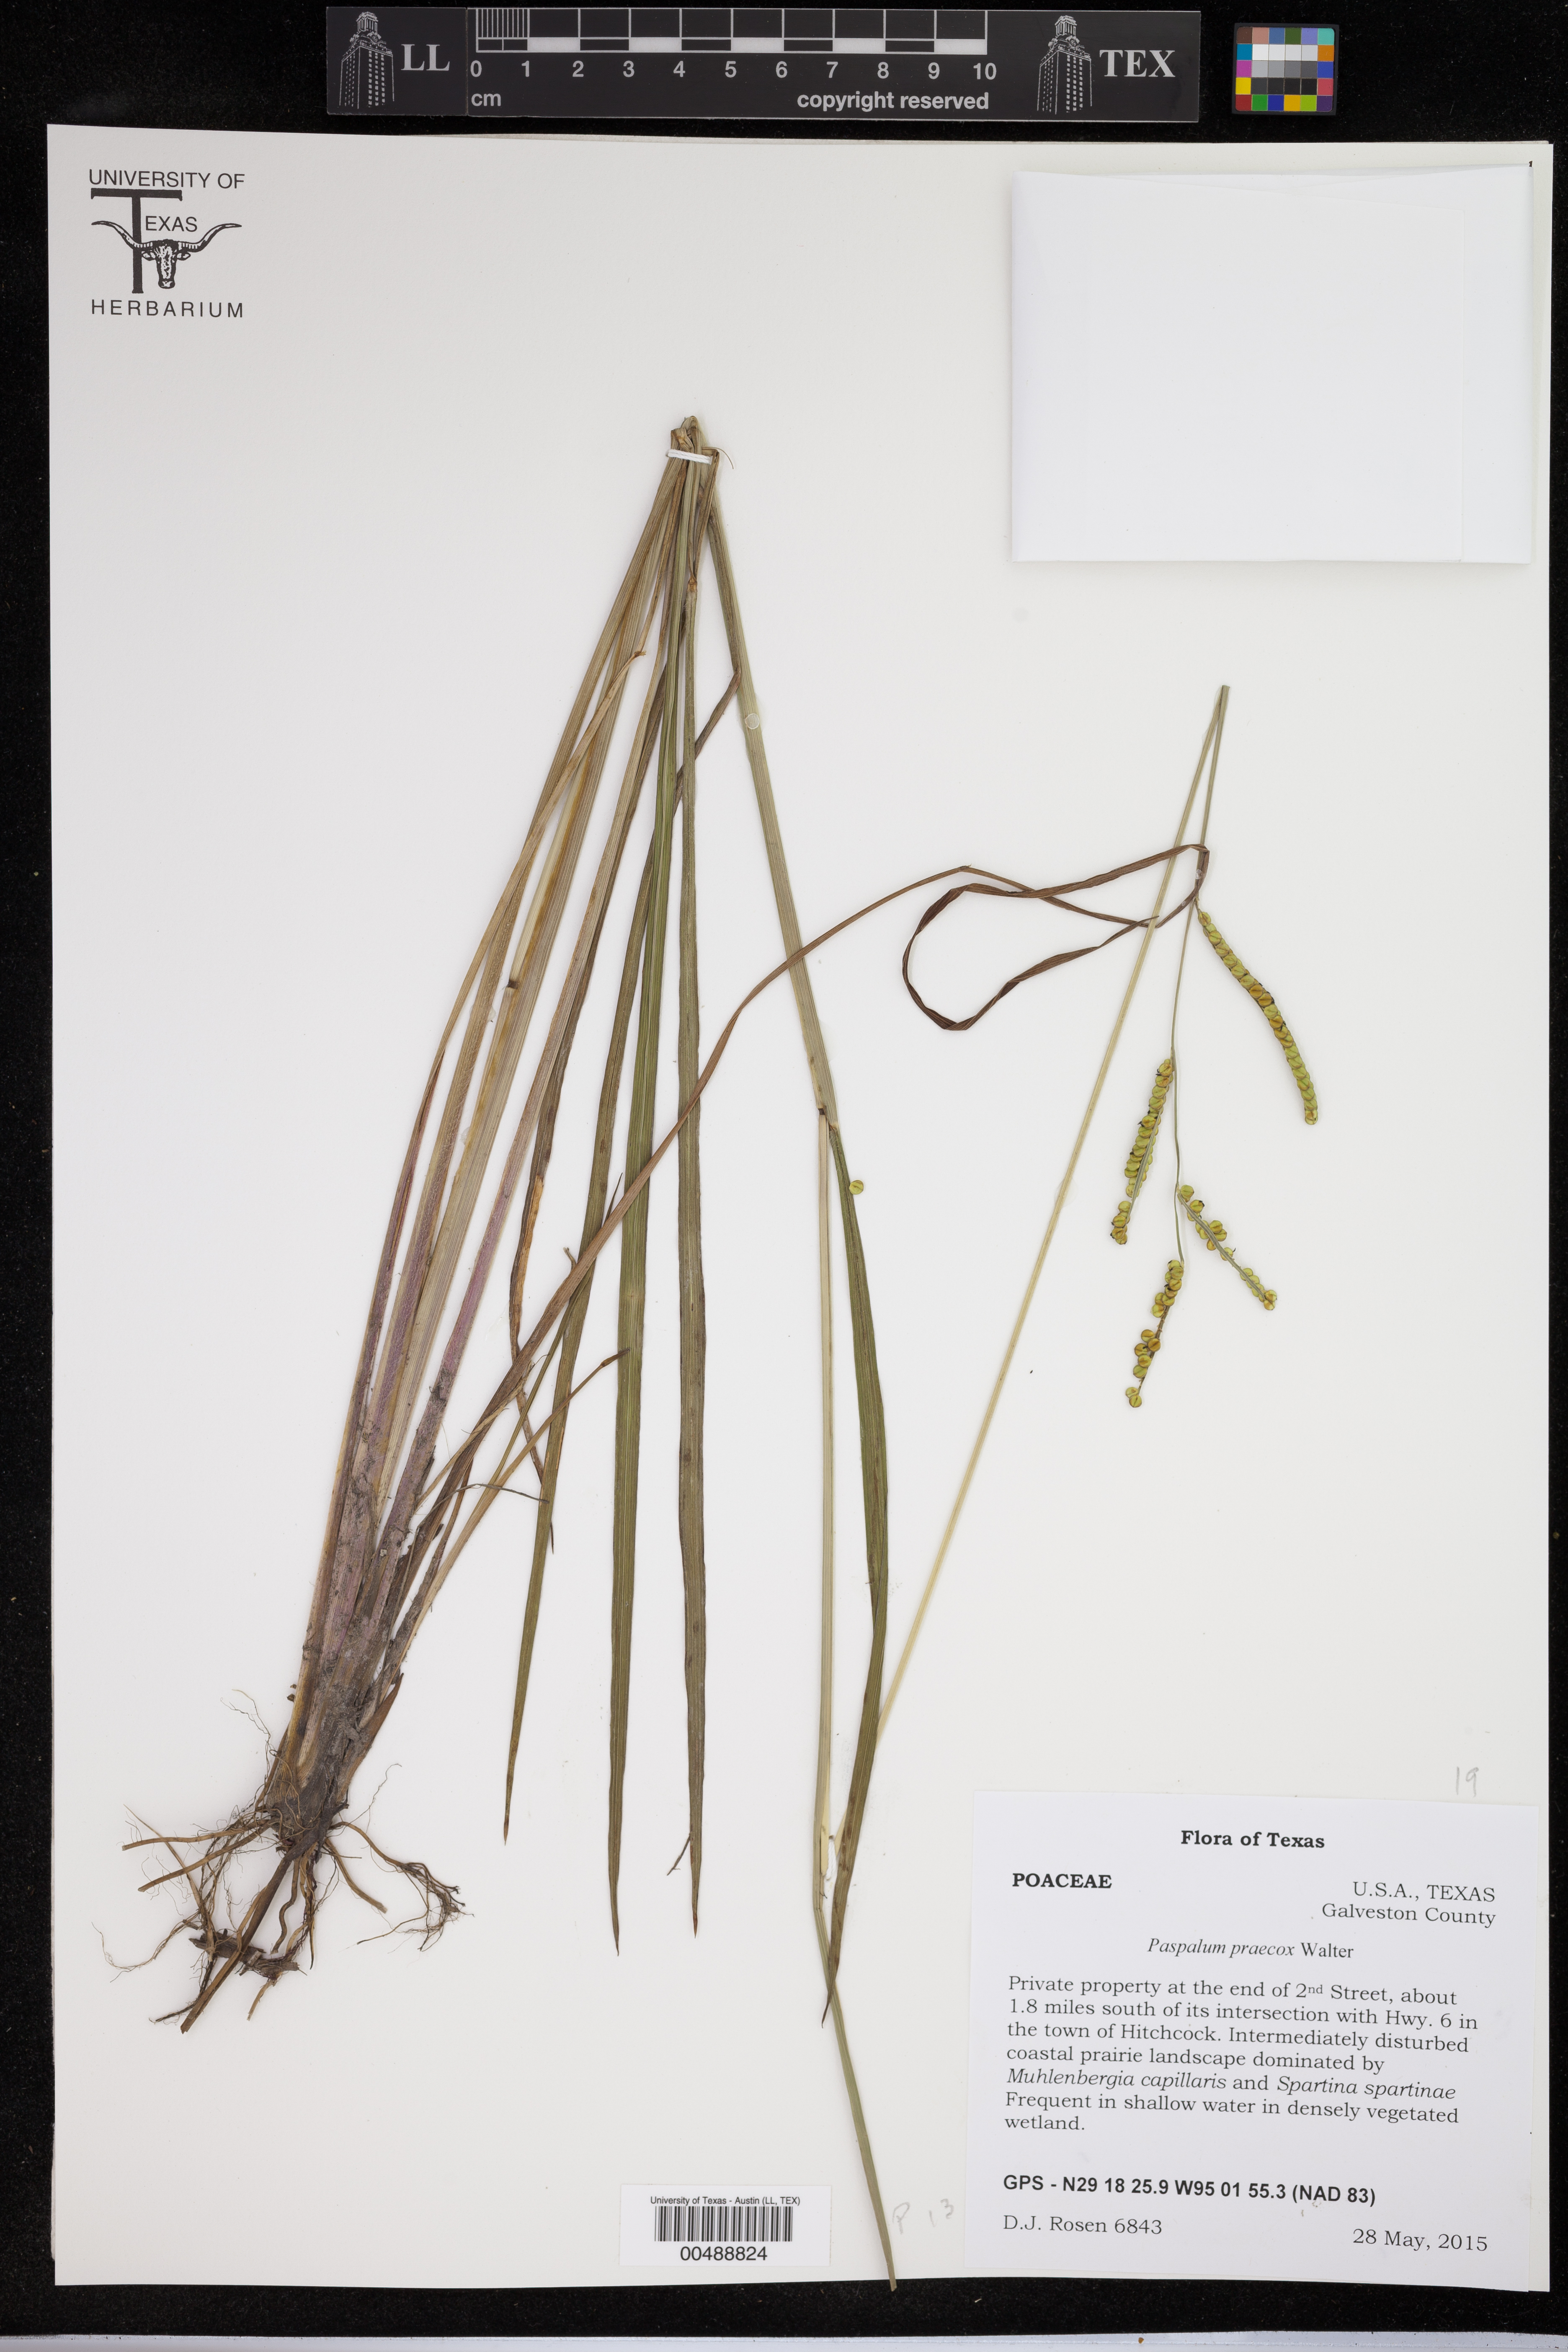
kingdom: Plantae
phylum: Tracheophyta
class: Liliopsida
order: Poales
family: Poaceae
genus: Paspalum
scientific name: Paspalum praecox
